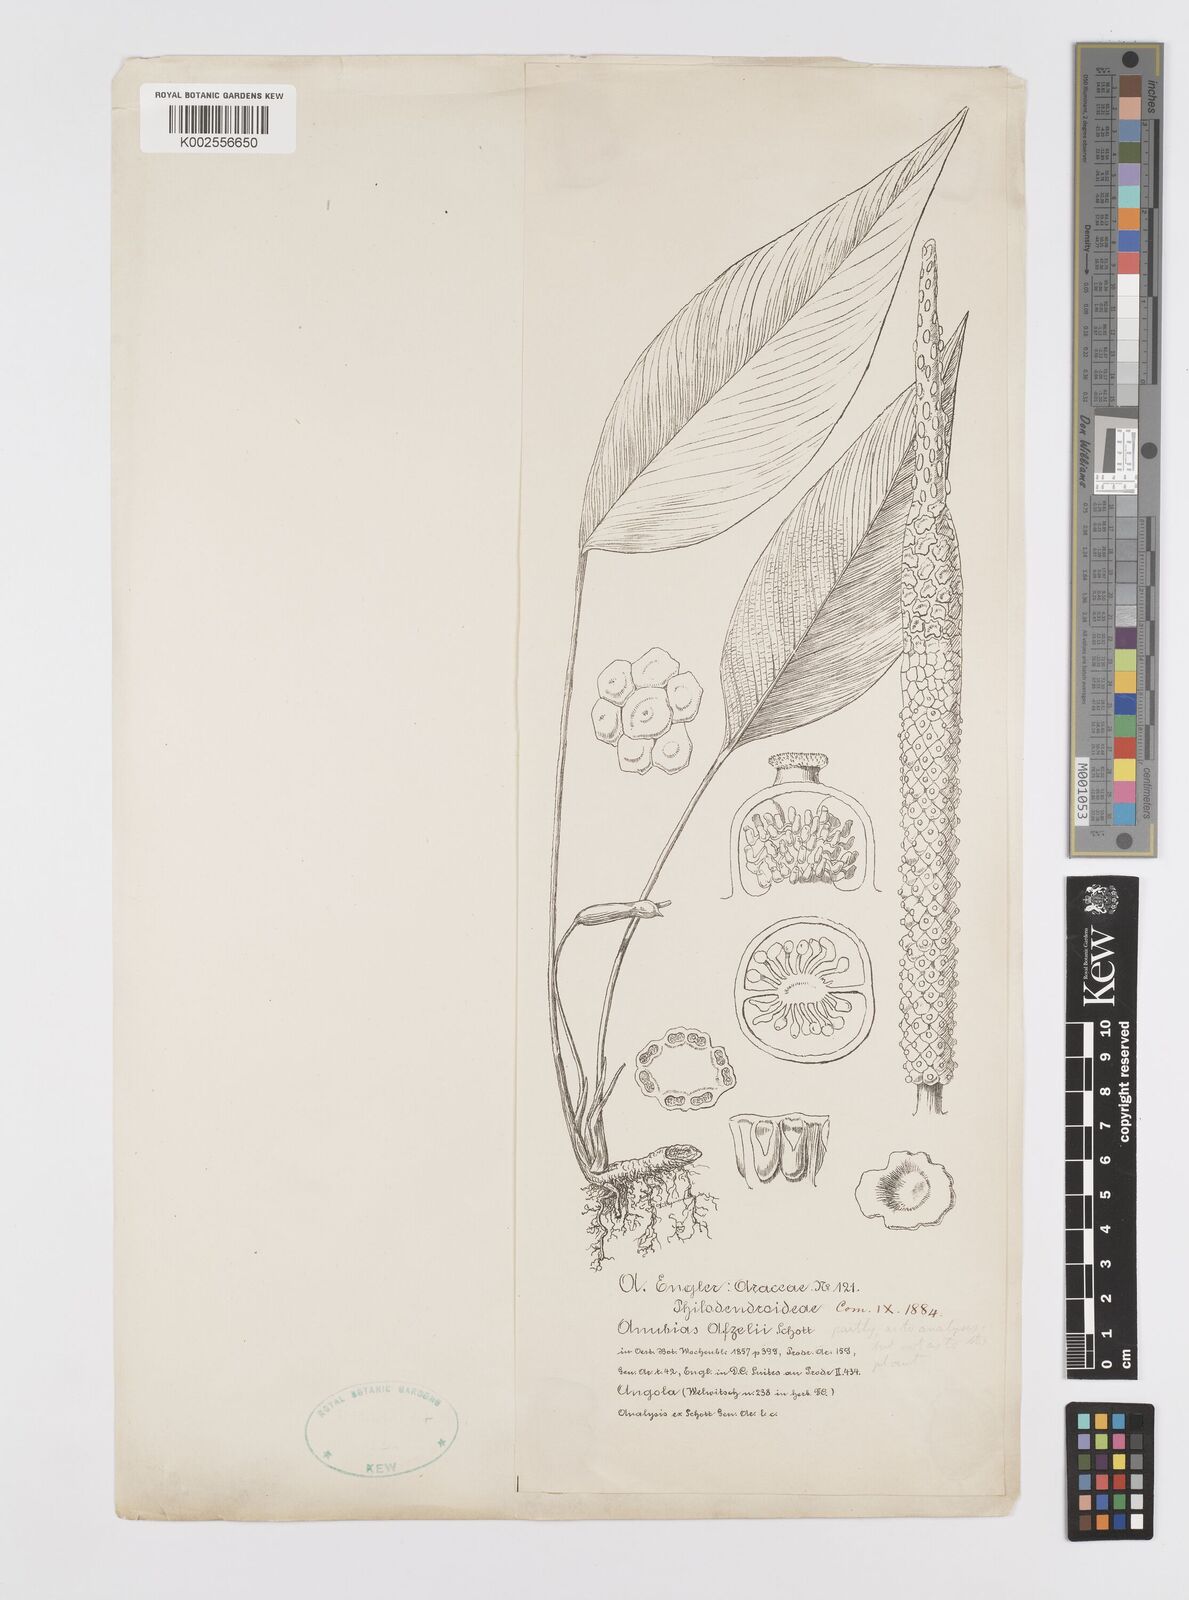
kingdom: Plantae
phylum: Tracheophyta
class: Liliopsida
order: Alismatales
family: Araceae
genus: Anubias
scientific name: Anubias heterophylla
